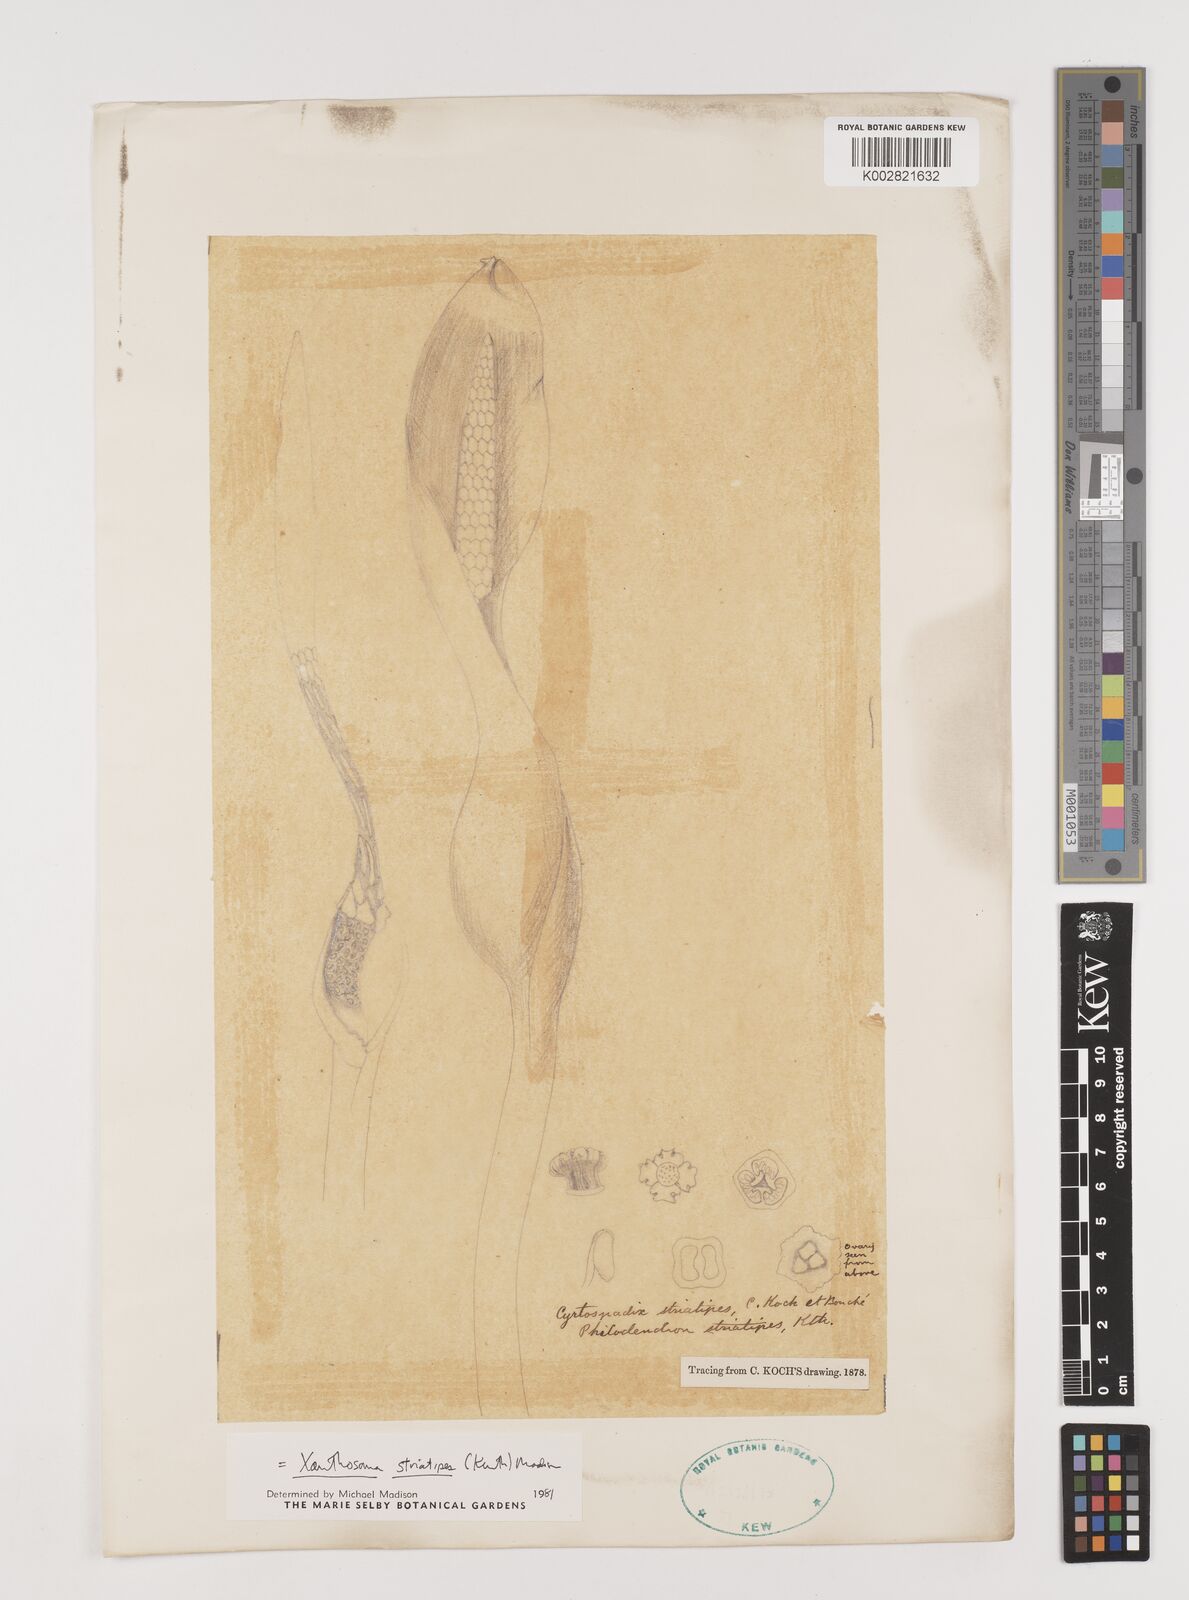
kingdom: Plantae
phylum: Tracheophyta
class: Liliopsida
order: Alismatales
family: Araceae
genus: Xanthosoma
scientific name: Xanthosoma striatipes
